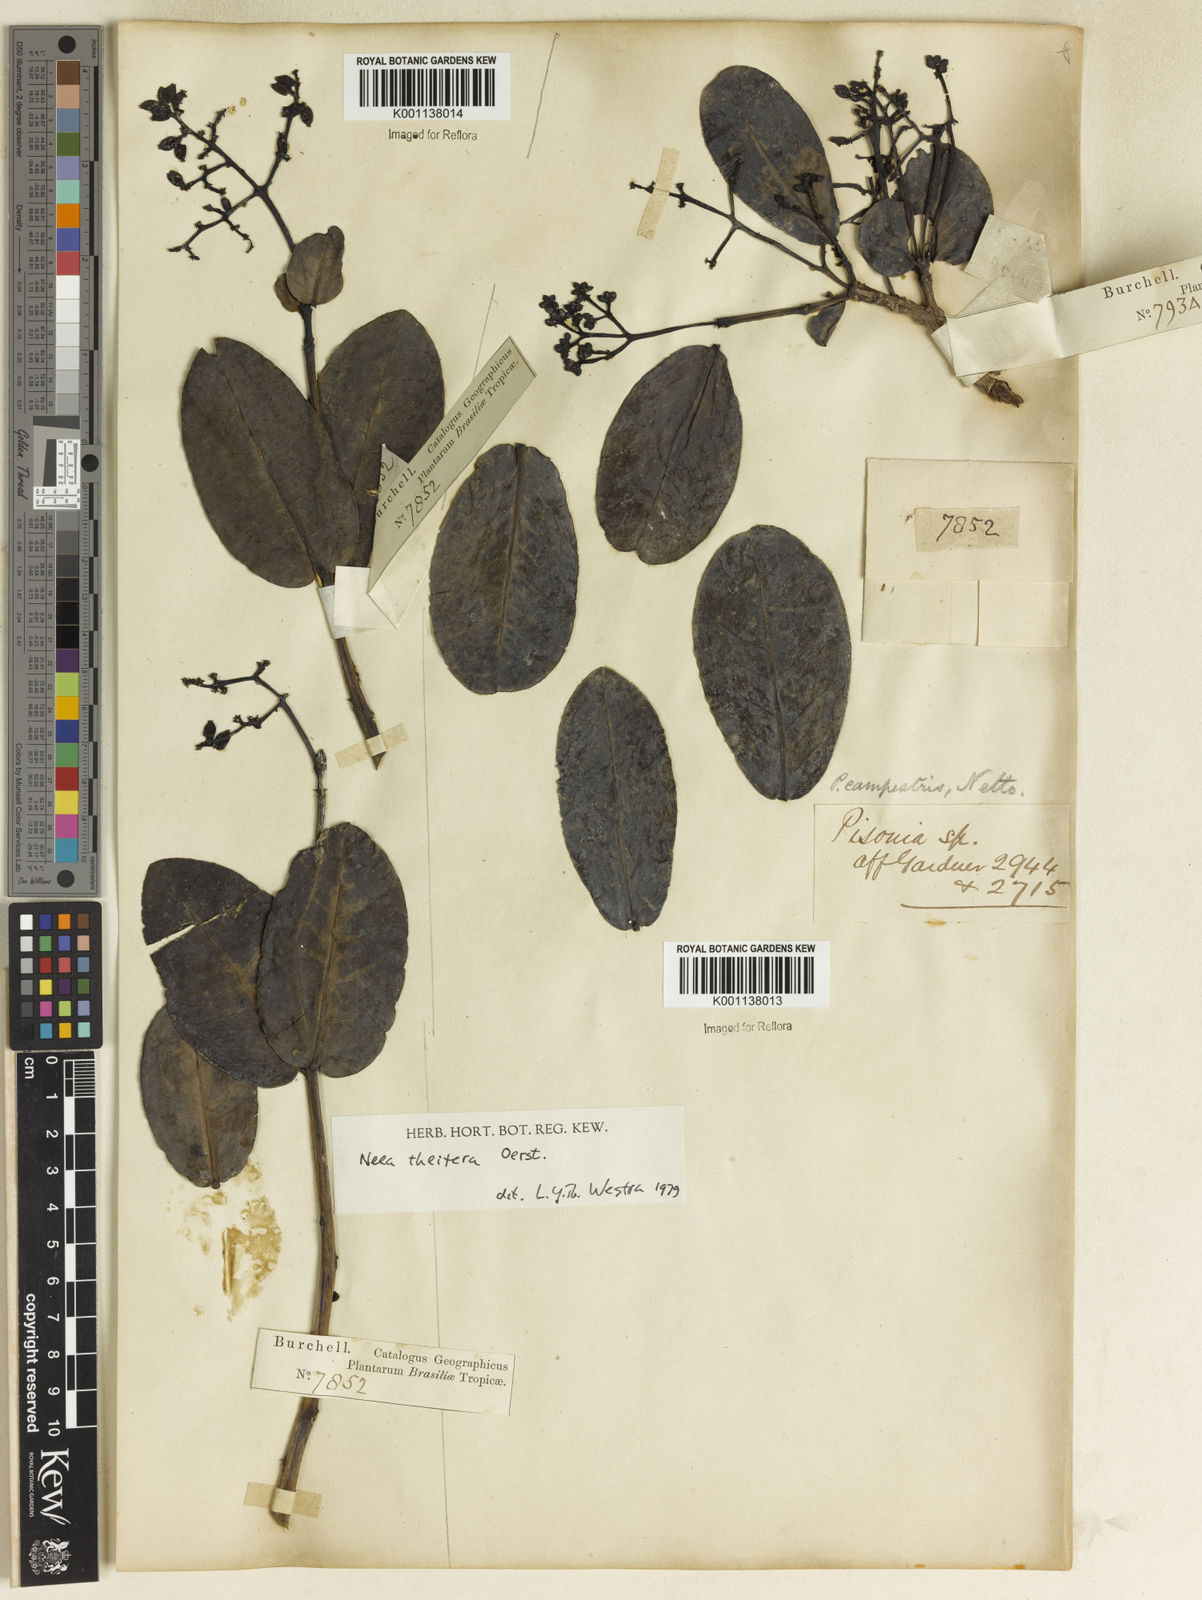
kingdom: Plantae
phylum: Tracheophyta
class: Magnoliopsida
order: Caryophyllales
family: Nyctaginaceae
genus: Neea
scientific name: Neea theifera
